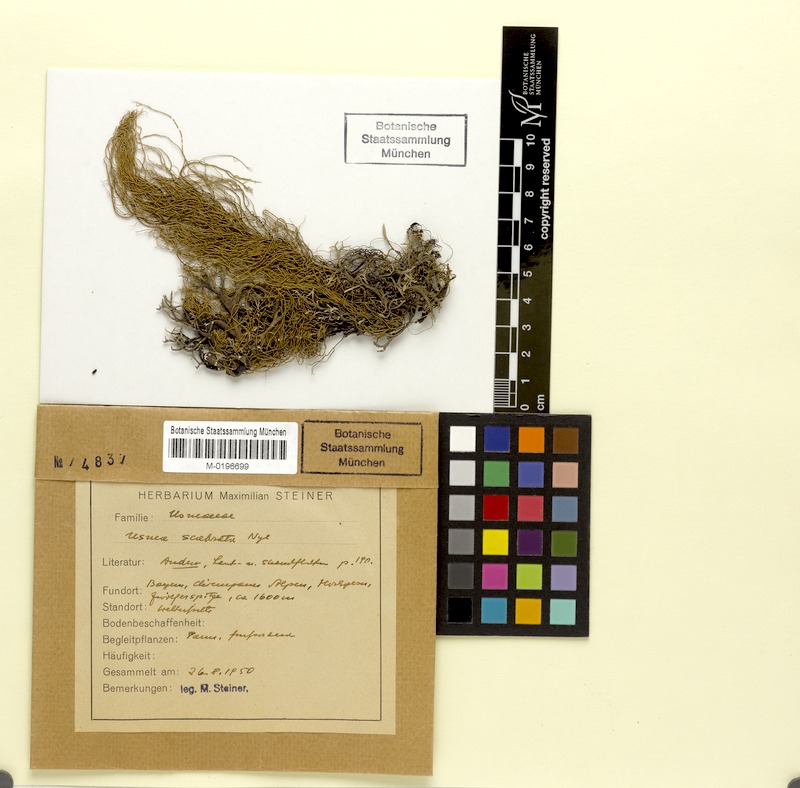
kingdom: Fungi
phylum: Ascomycota
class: Lecanoromycetes
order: Lecanorales
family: Parmeliaceae
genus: Usnea
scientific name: Usnea scabrata
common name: Straw beard lichen
